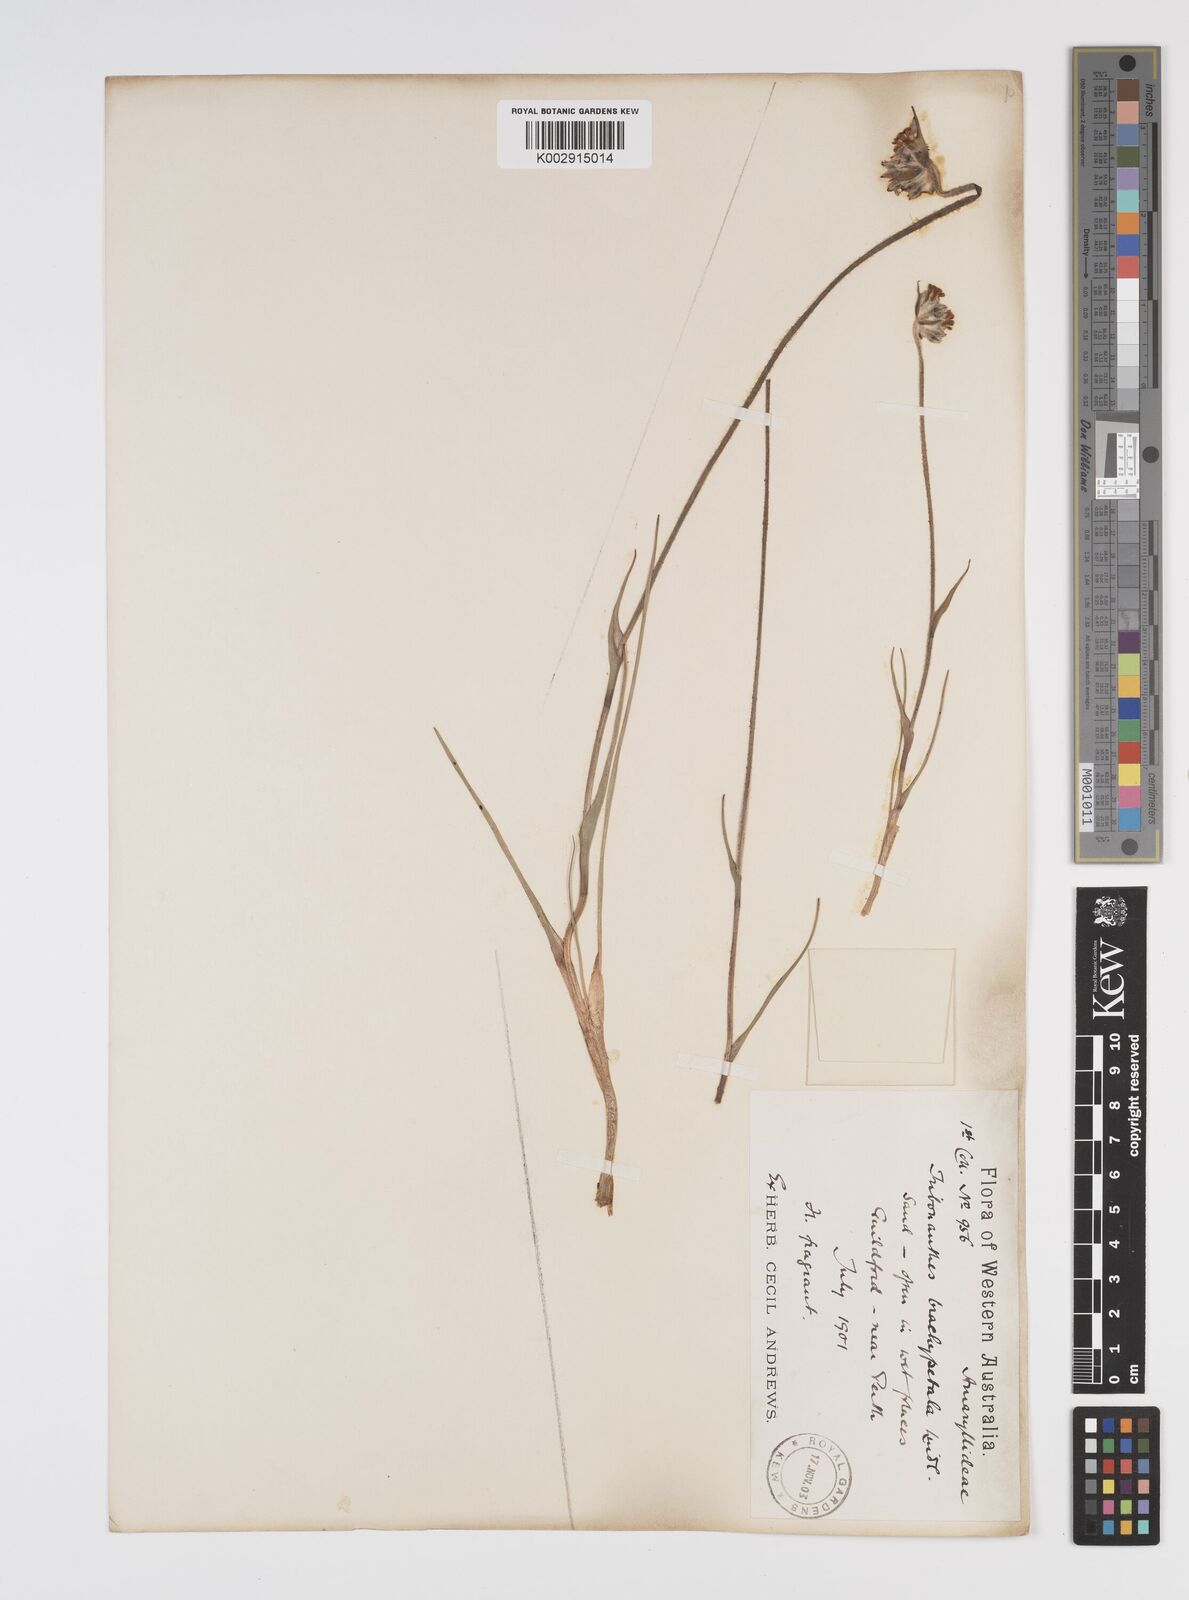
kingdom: Plantae
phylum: Tracheophyta
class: Liliopsida
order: Commelinales
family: Haemodoraceae
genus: Tribonanthes
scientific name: Tribonanthes brachypetala
